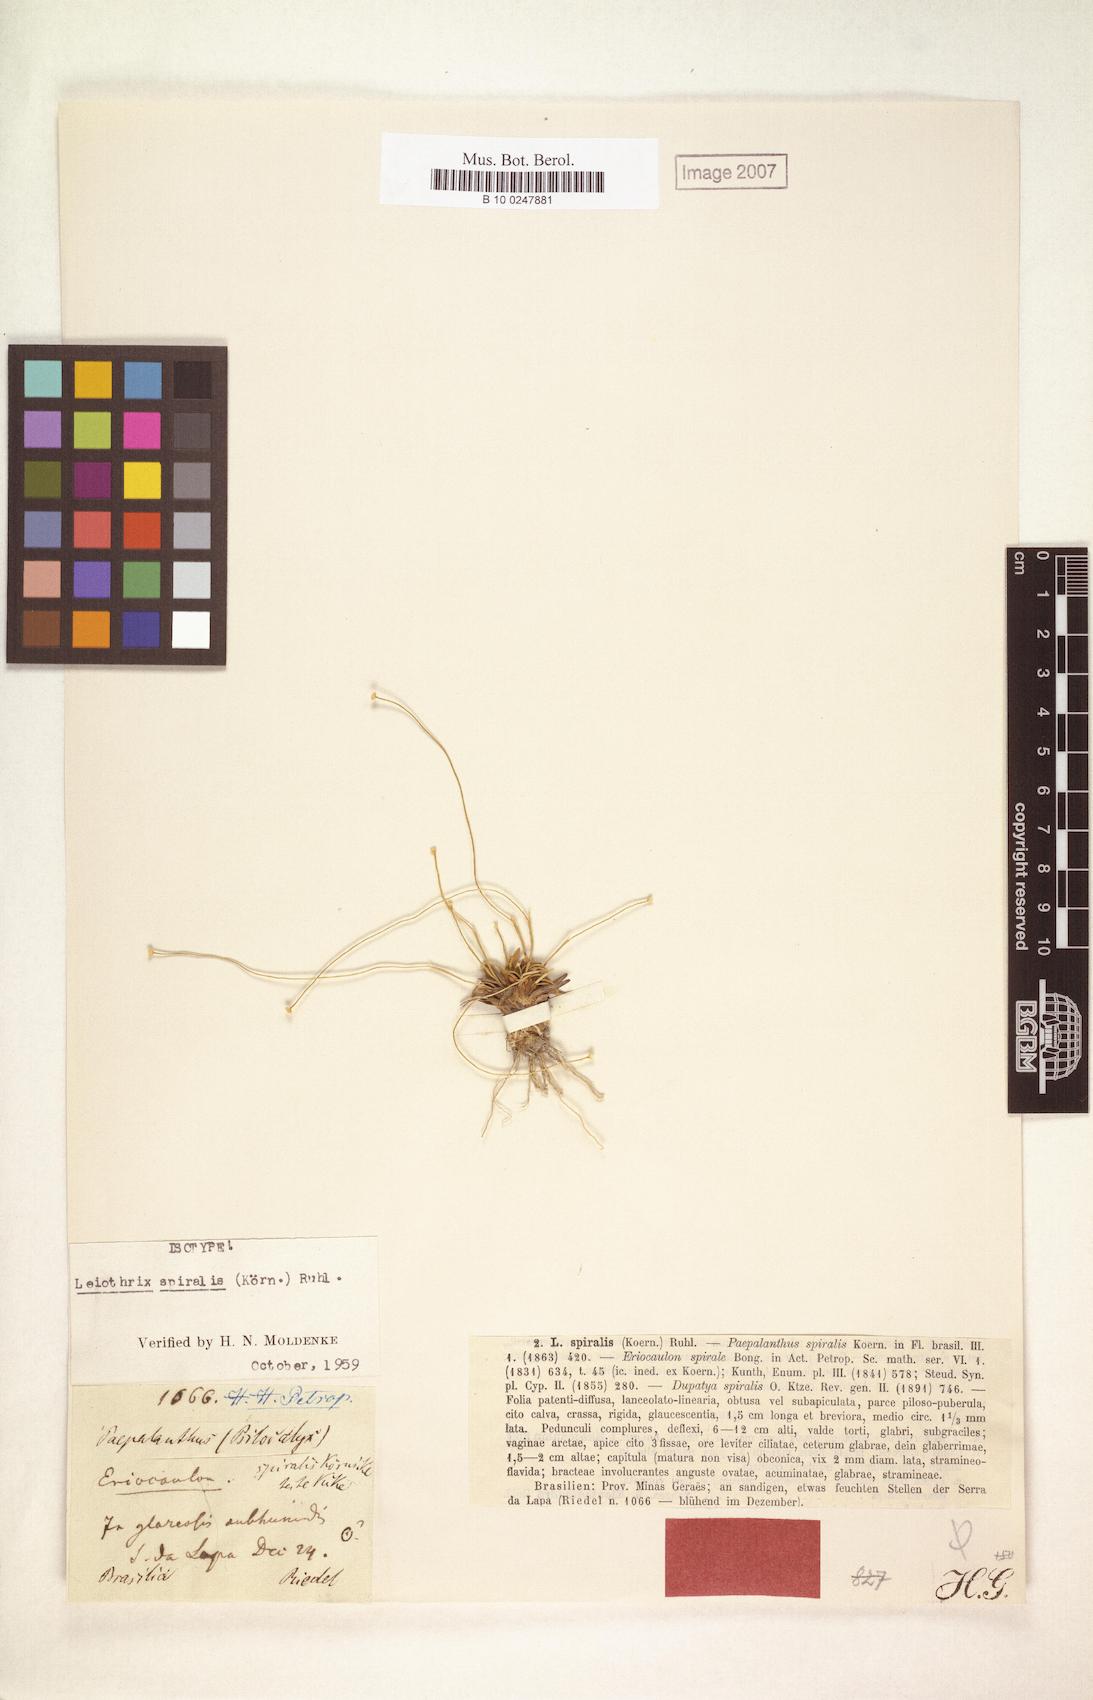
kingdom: Plantae
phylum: Tracheophyta
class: Liliopsida
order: Poales
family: Eriocaulaceae
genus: Leiothrix
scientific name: Leiothrix spiralis
